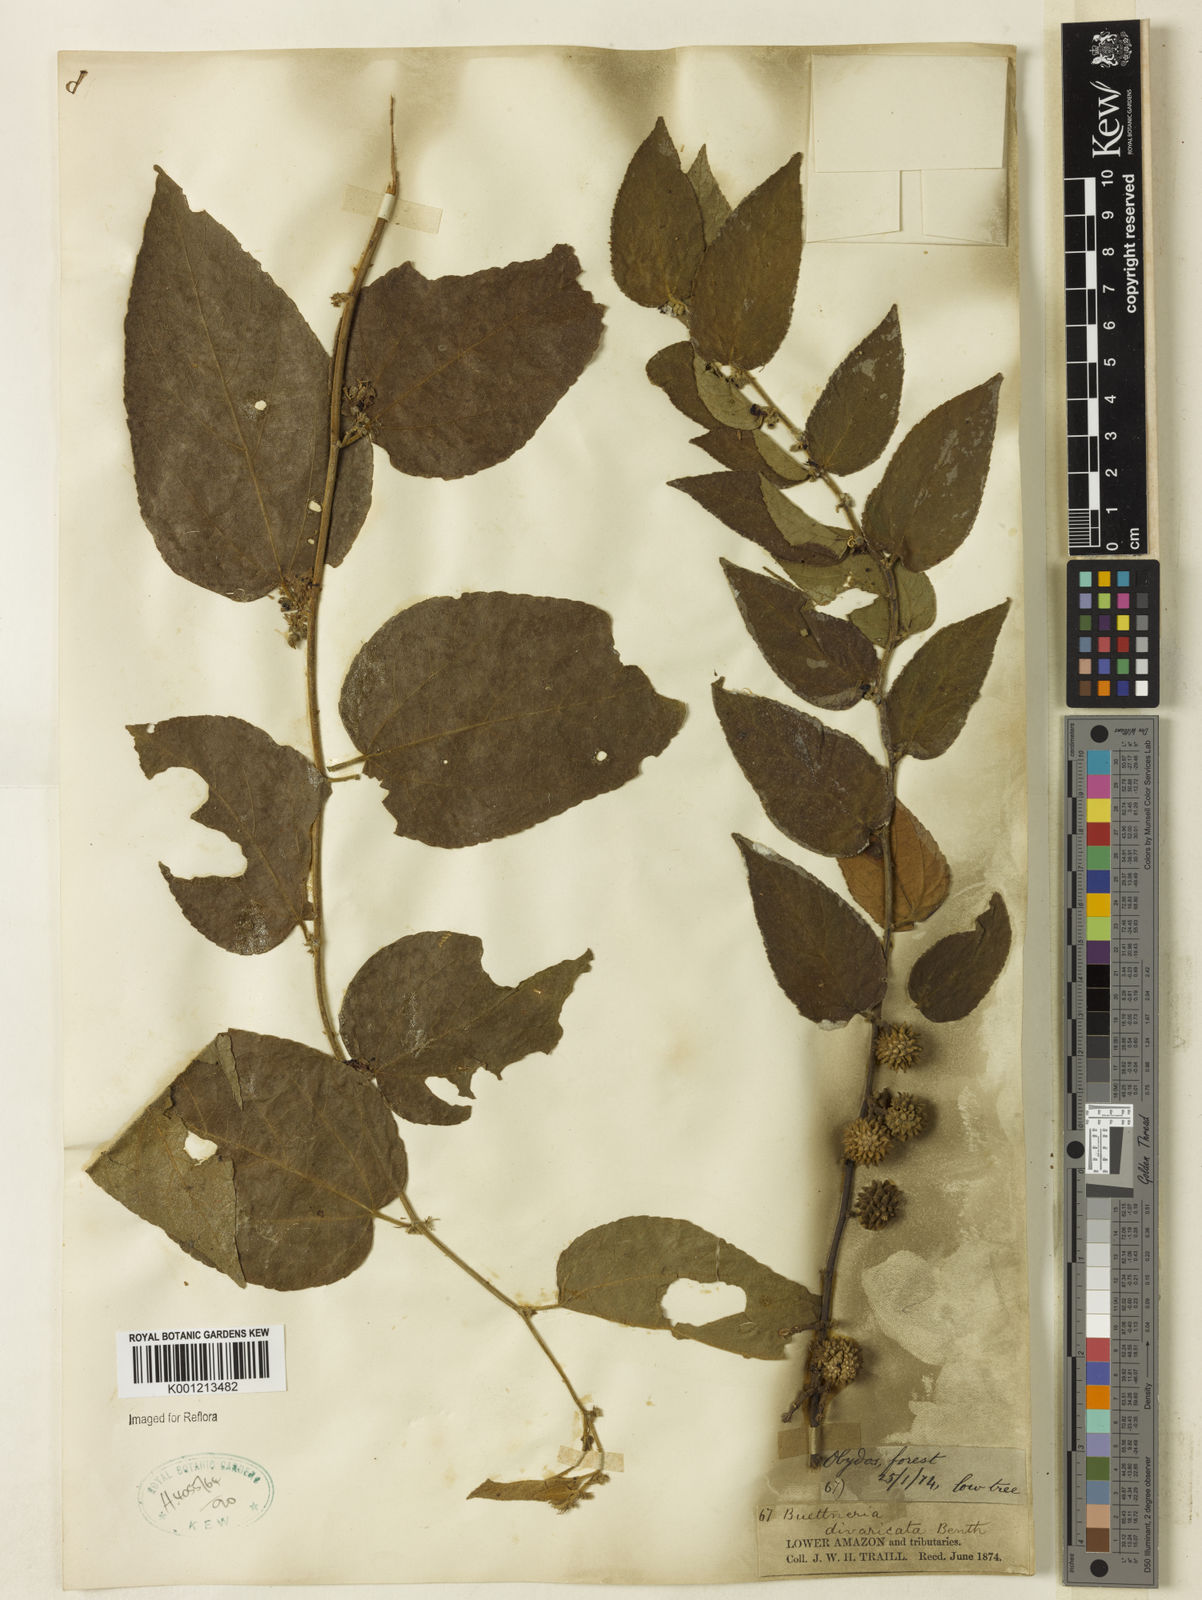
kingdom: Plantae
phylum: Tracheophyta
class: Magnoliopsida
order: Malvales
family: Malvaceae
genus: Byttneria
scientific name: Byttneria divaricata
